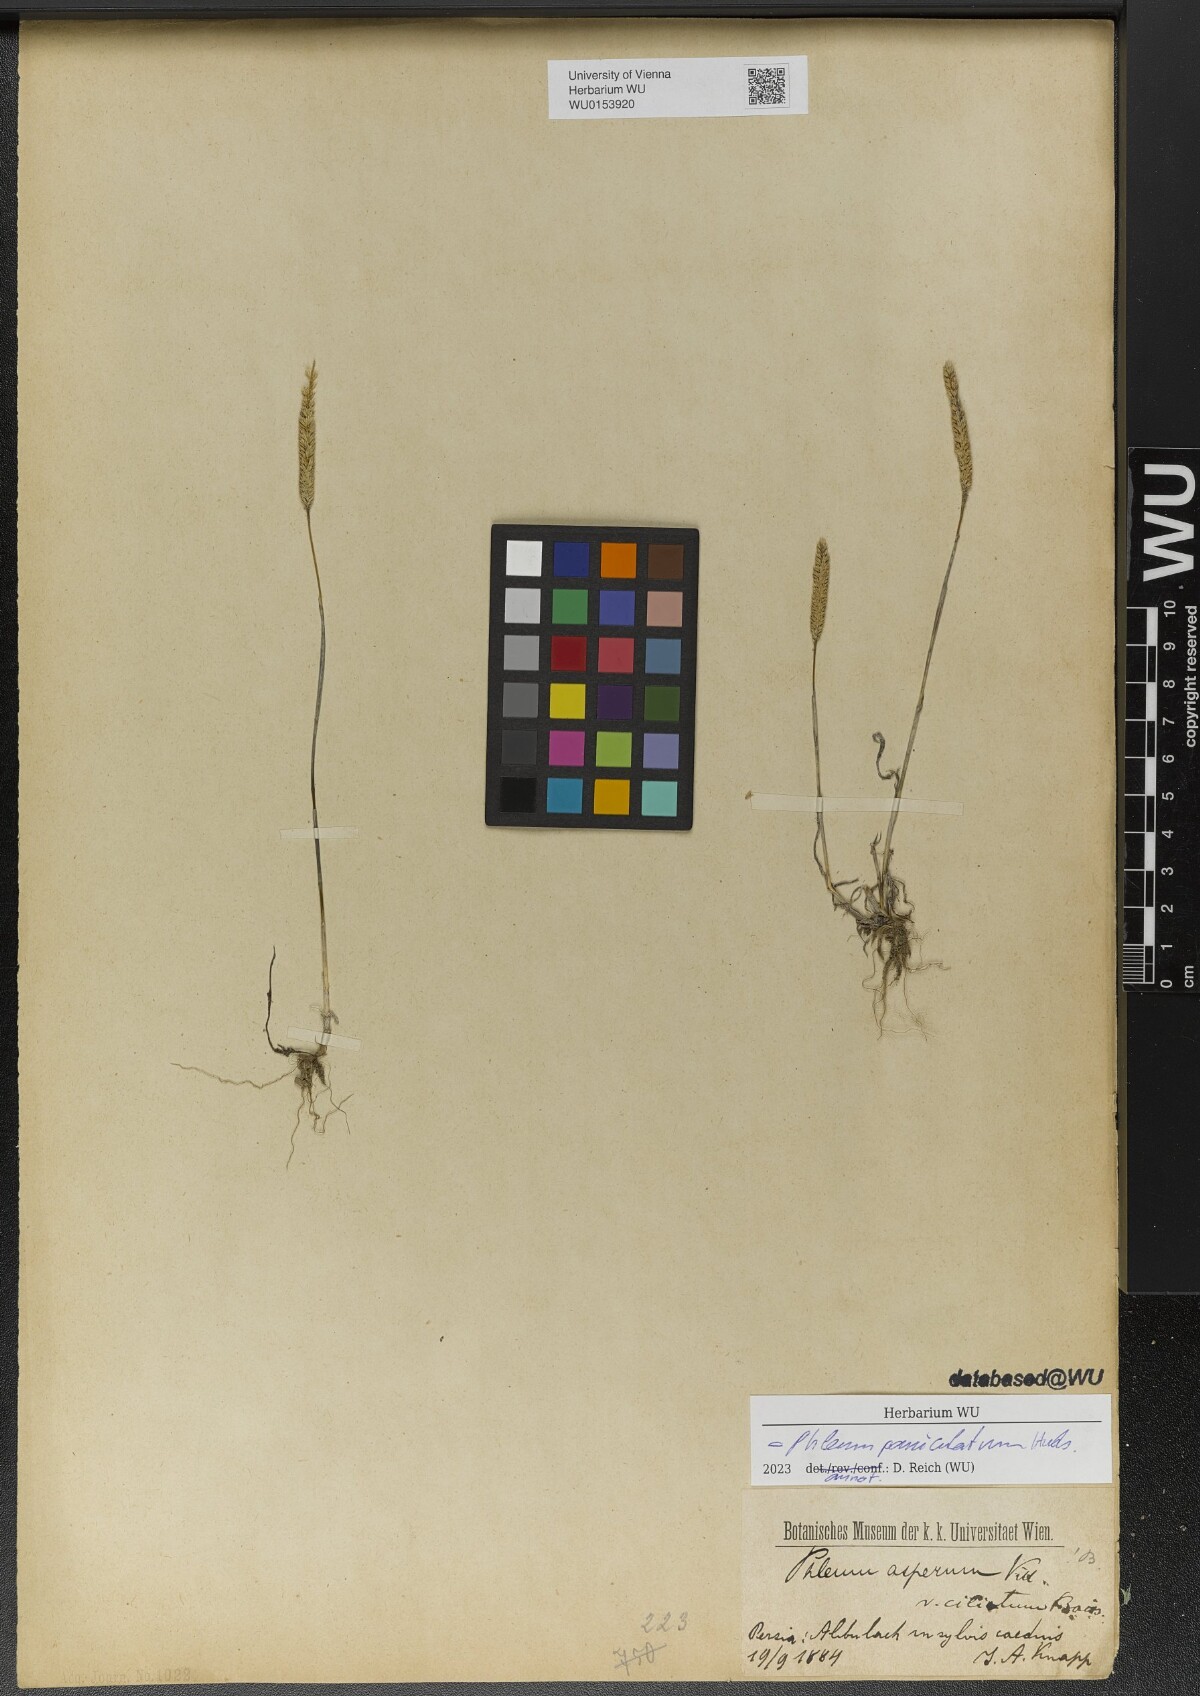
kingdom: Plantae
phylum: Tracheophyta
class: Liliopsida
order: Poales
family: Poaceae
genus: Phleum
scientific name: Phleum paniculatum
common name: British timothy
